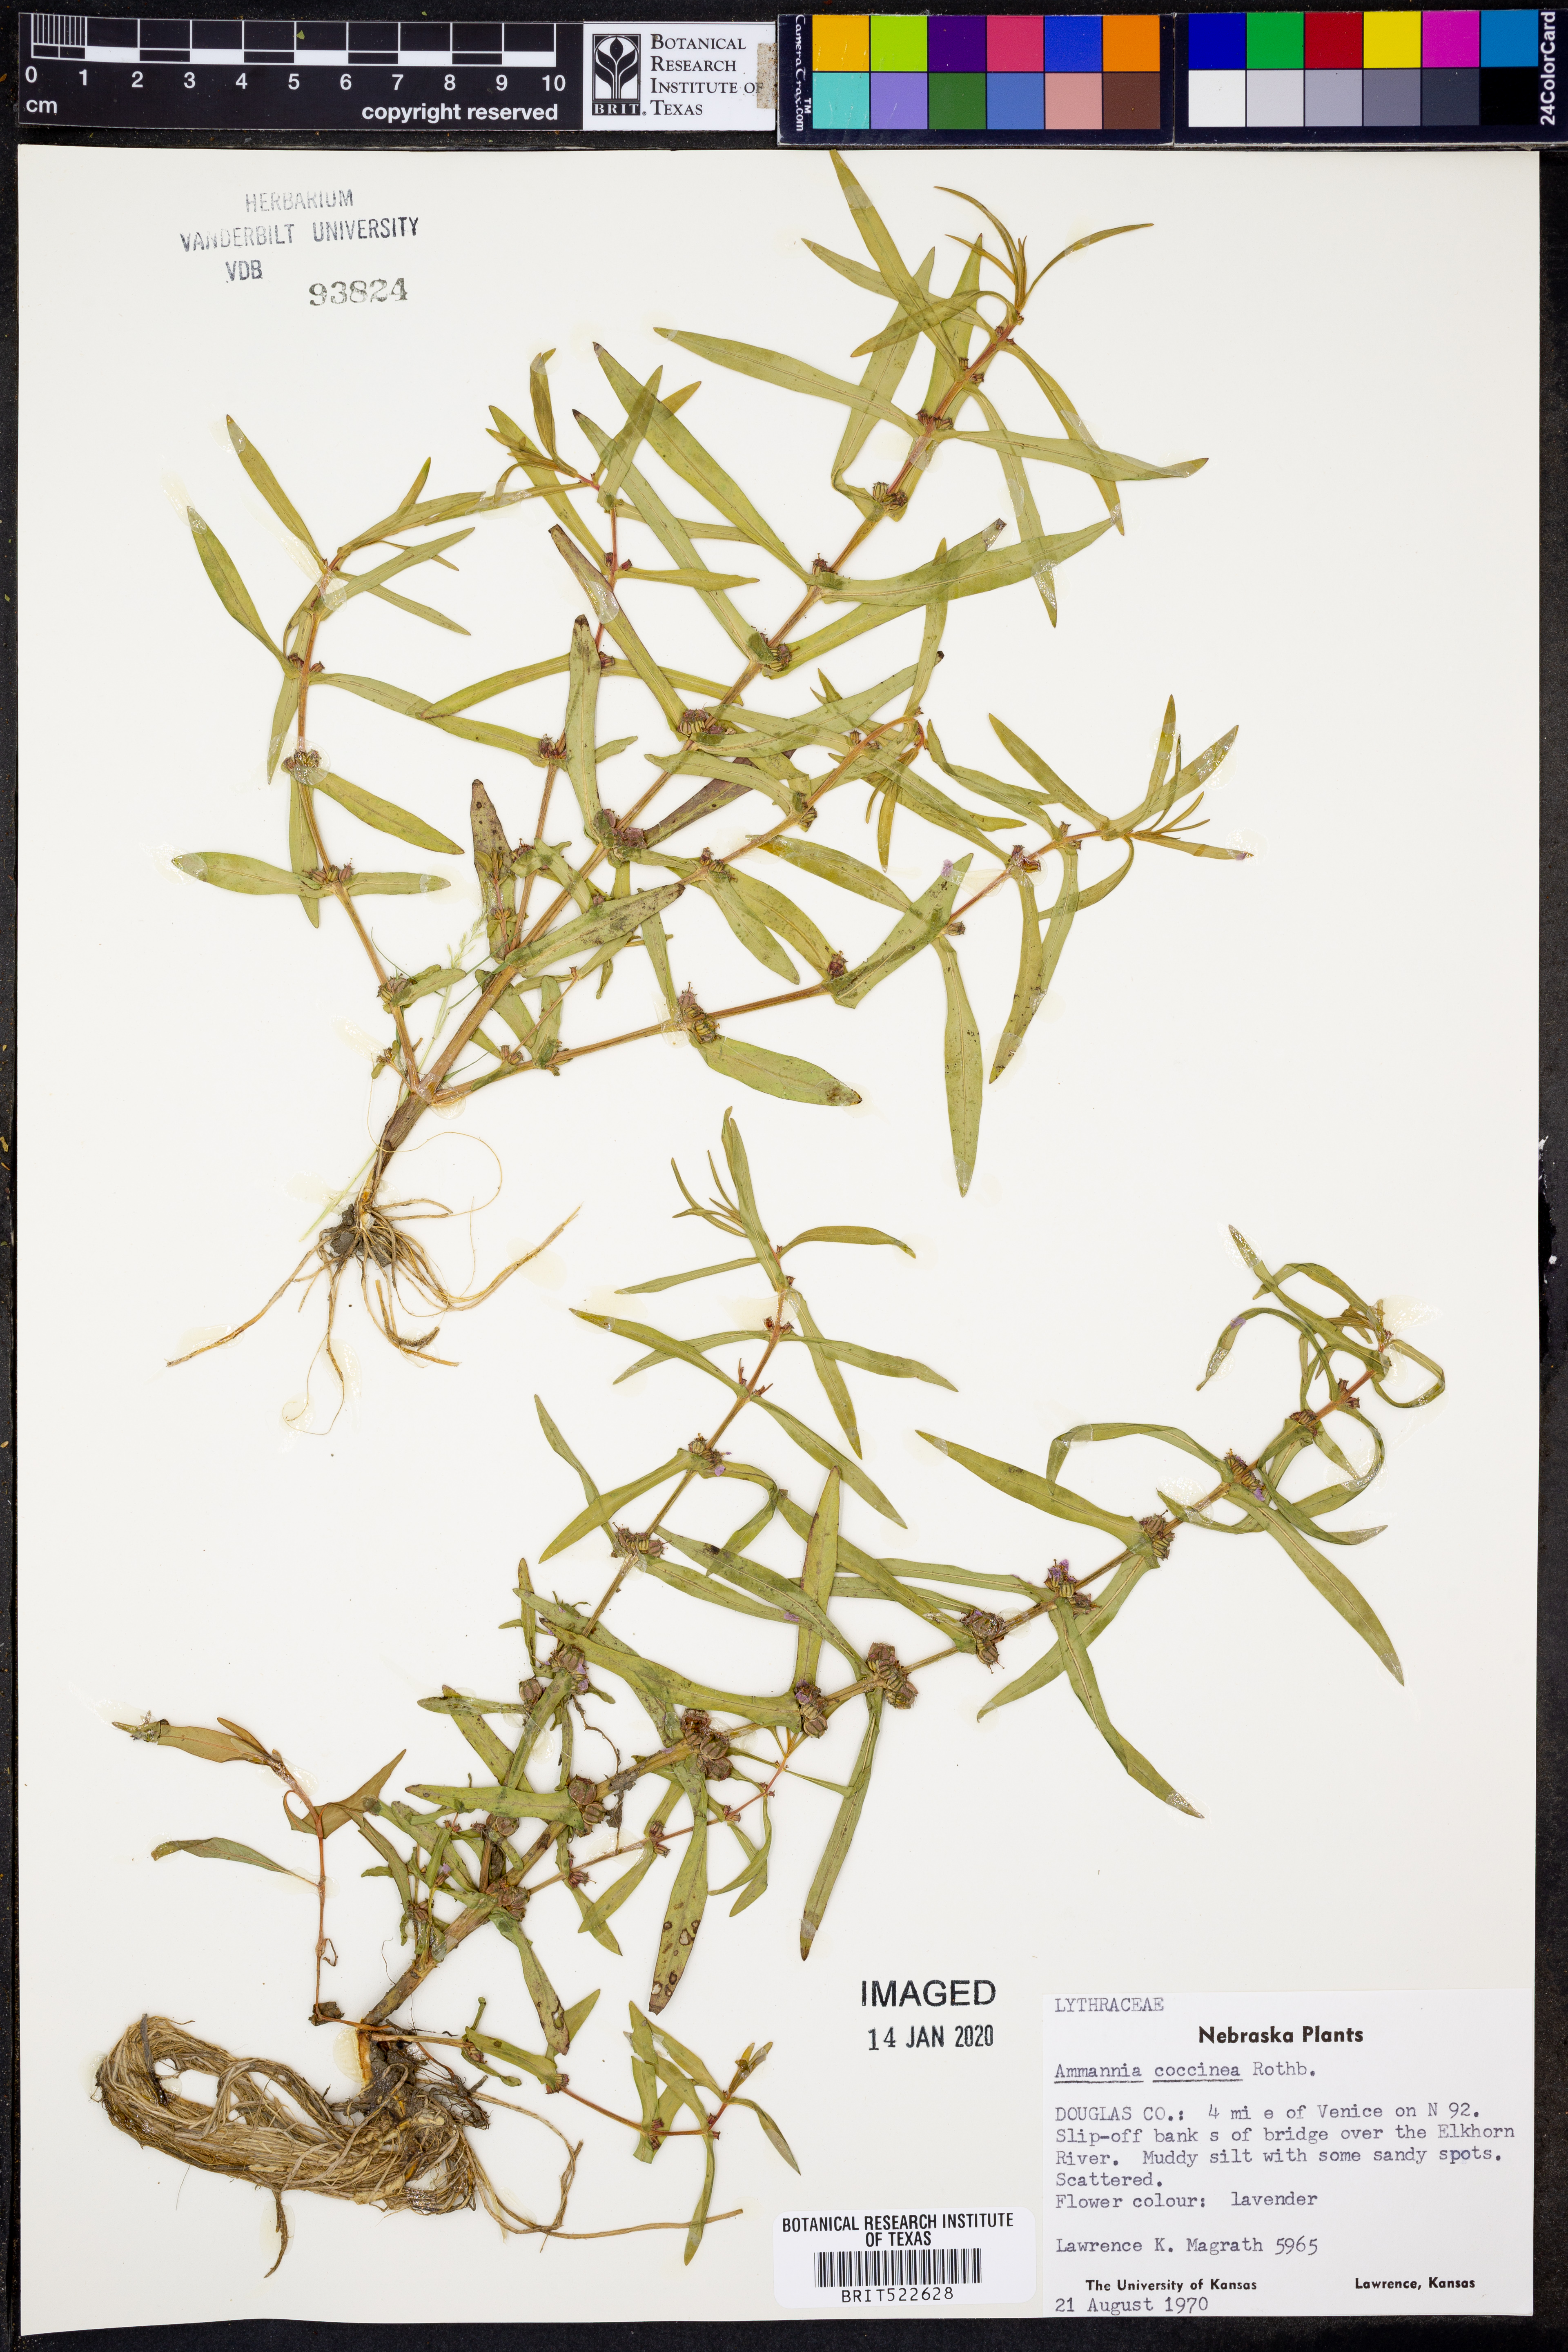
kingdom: Plantae
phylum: Tracheophyta
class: Magnoliopsida
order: Myrtales
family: Lythraceae
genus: Ammannia
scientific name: Ammannia coccinea
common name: Valley redstem
